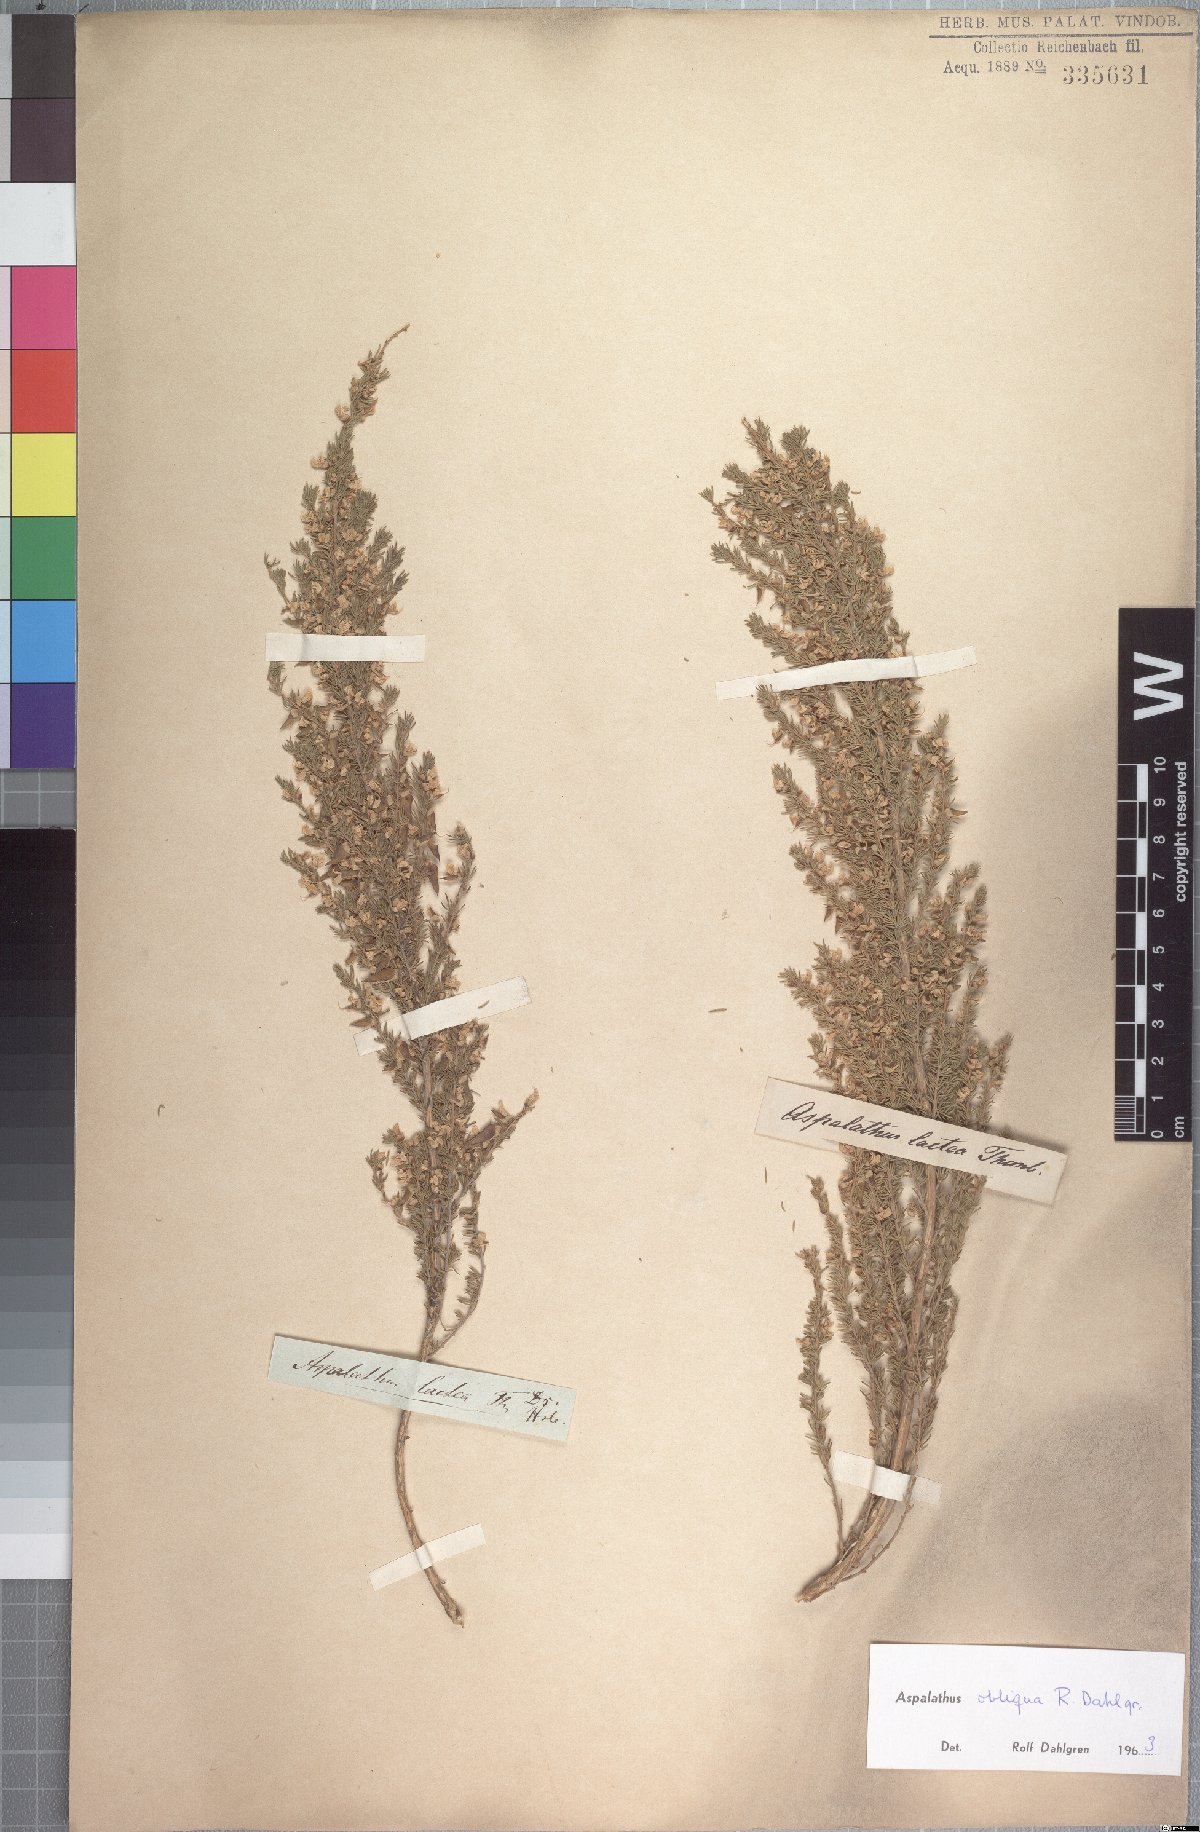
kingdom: Plantae
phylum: Tracheophyta
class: Magnoliopsida
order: Fabales
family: Fabaceae
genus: Aspalathus
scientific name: Aspalathus obliqua
